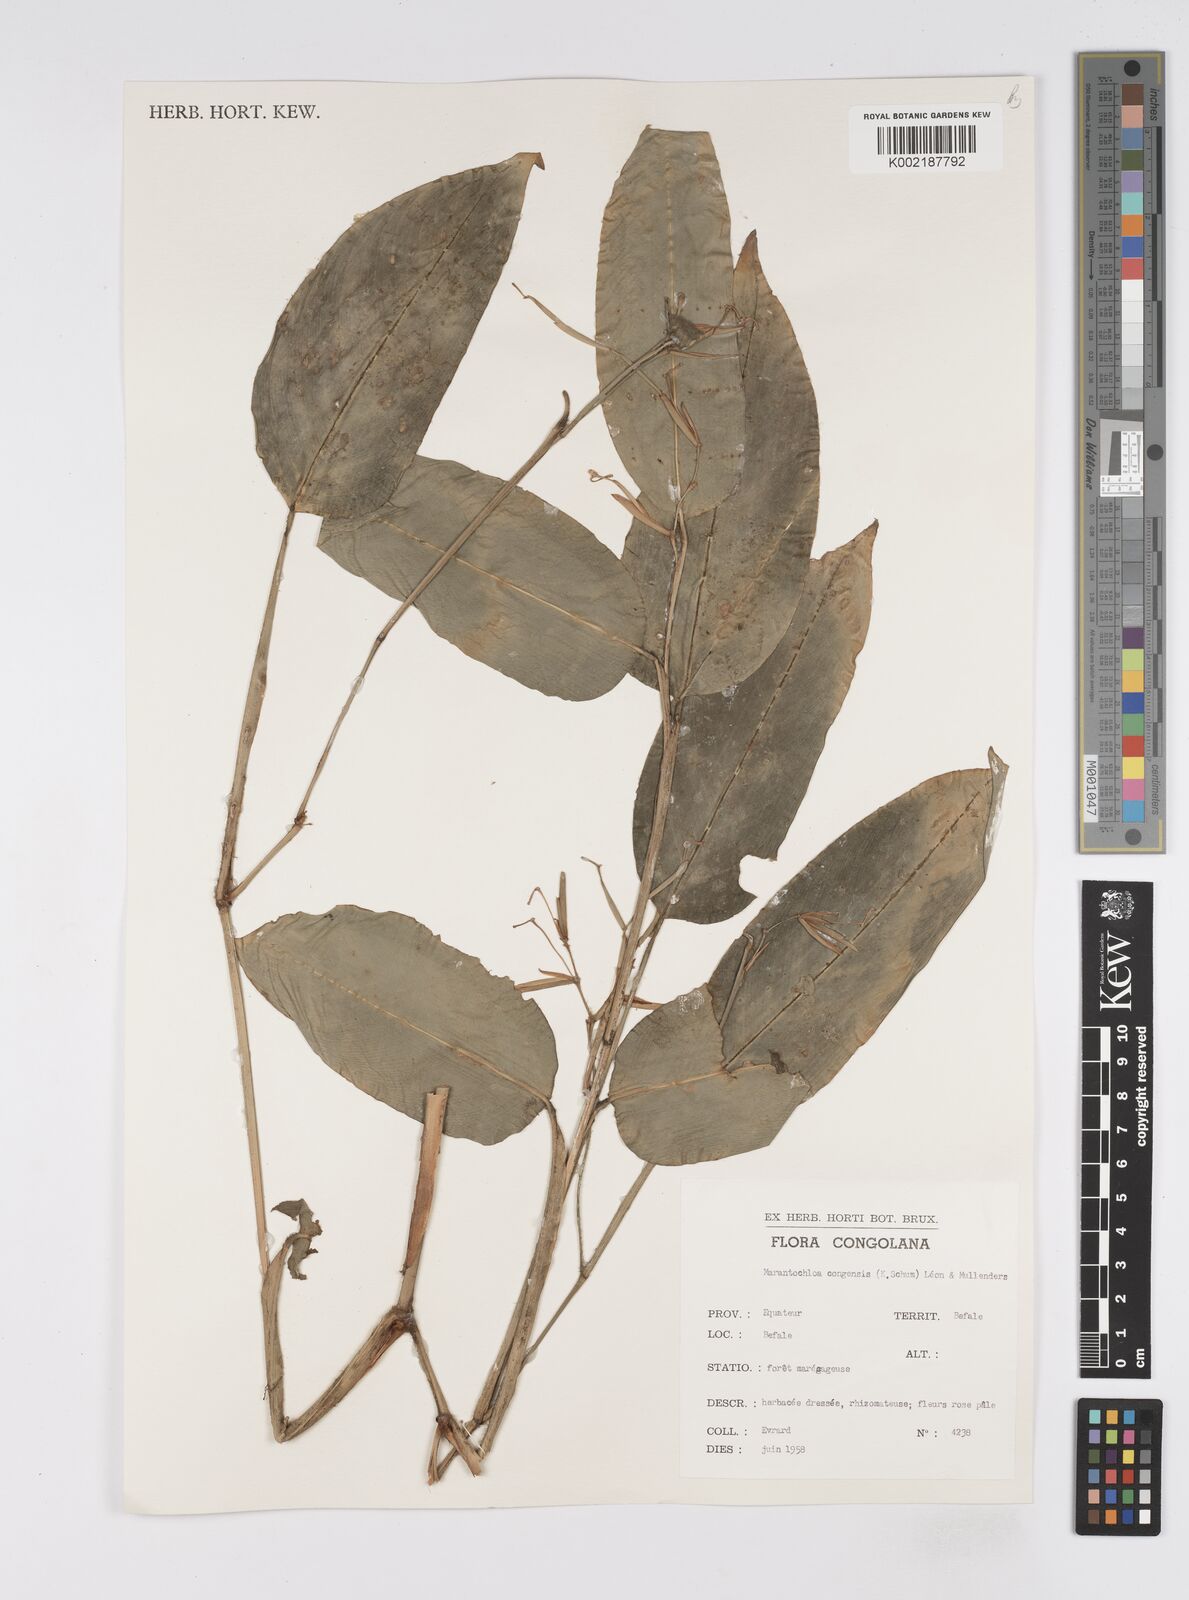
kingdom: Plantae
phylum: Tracheophyta
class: Liliopsida
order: Zingiberales
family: Marantaceae
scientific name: Marantaceae
